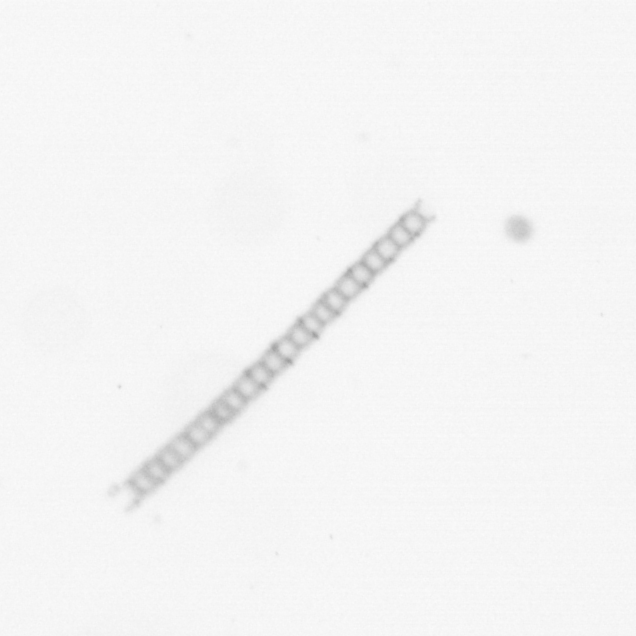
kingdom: Chromista
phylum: Ochrophyta
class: Bacillariophyceae
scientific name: Bacillariophyceae
